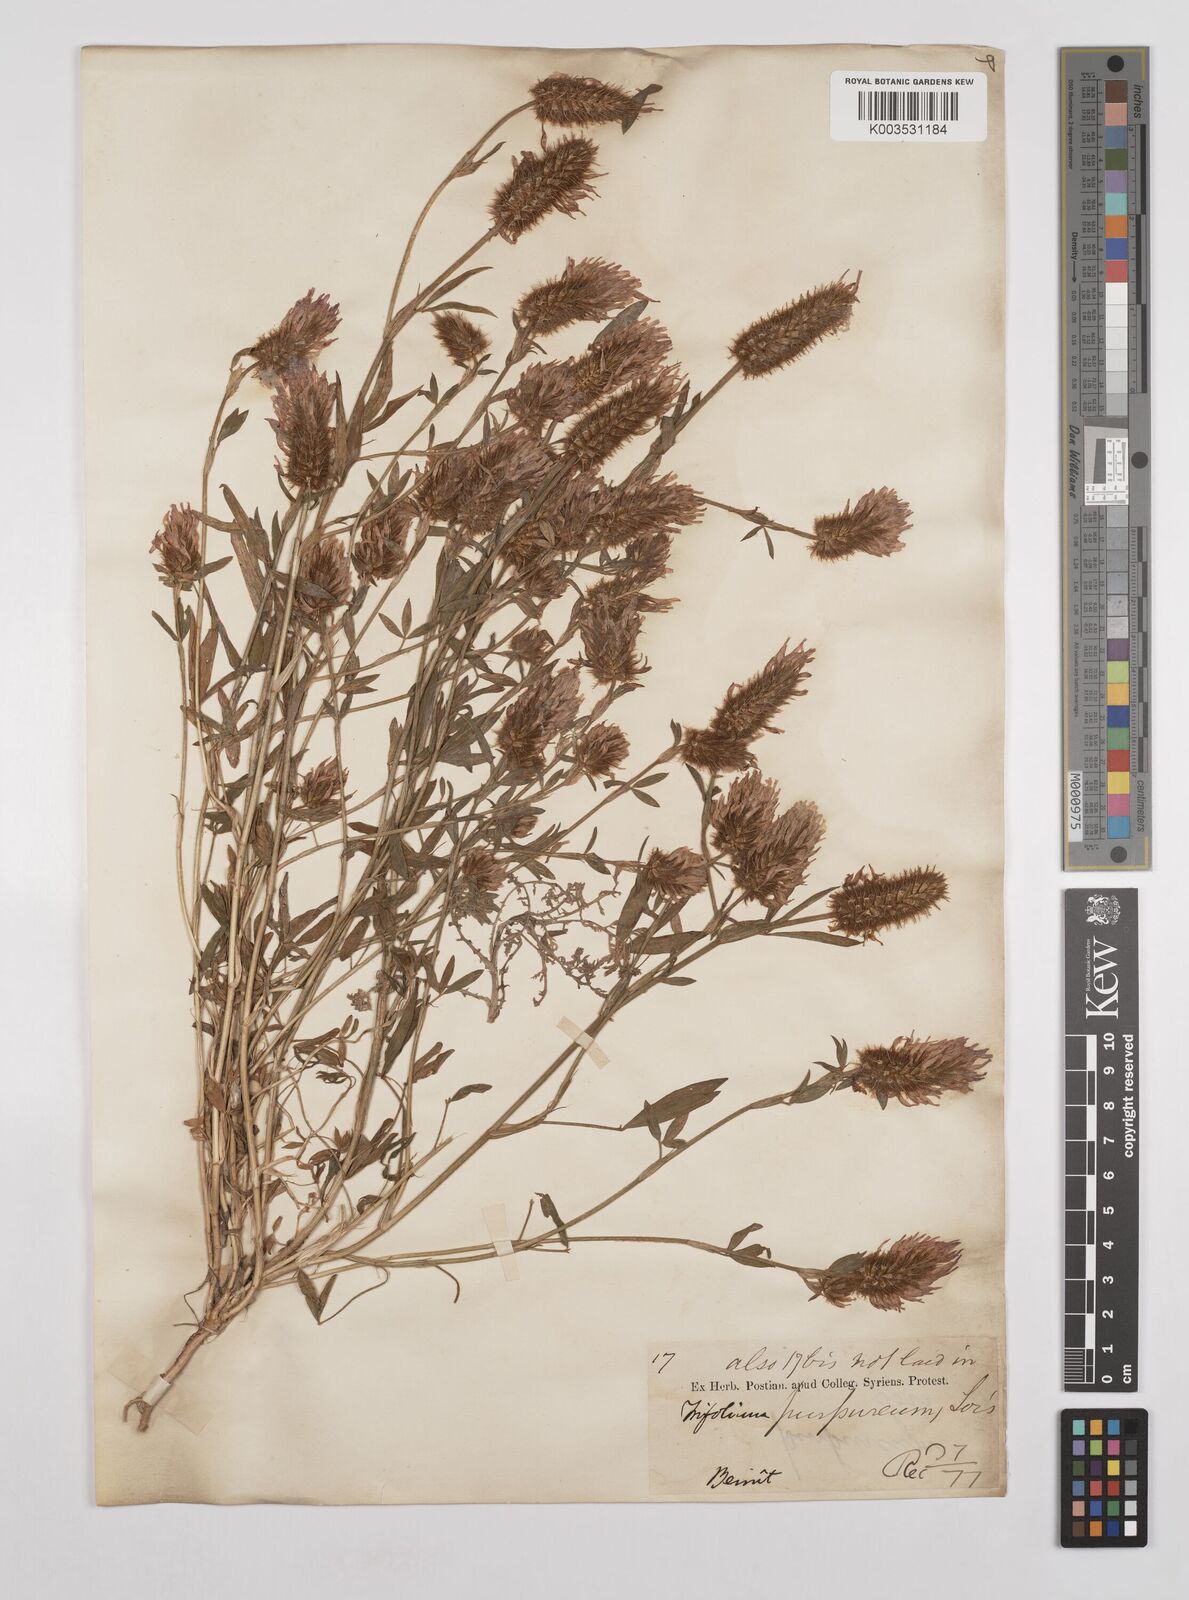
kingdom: Plantae
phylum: Tracheophyta
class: Magnoliopsida
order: Fabales
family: Fabaceae
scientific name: Fabaceae
